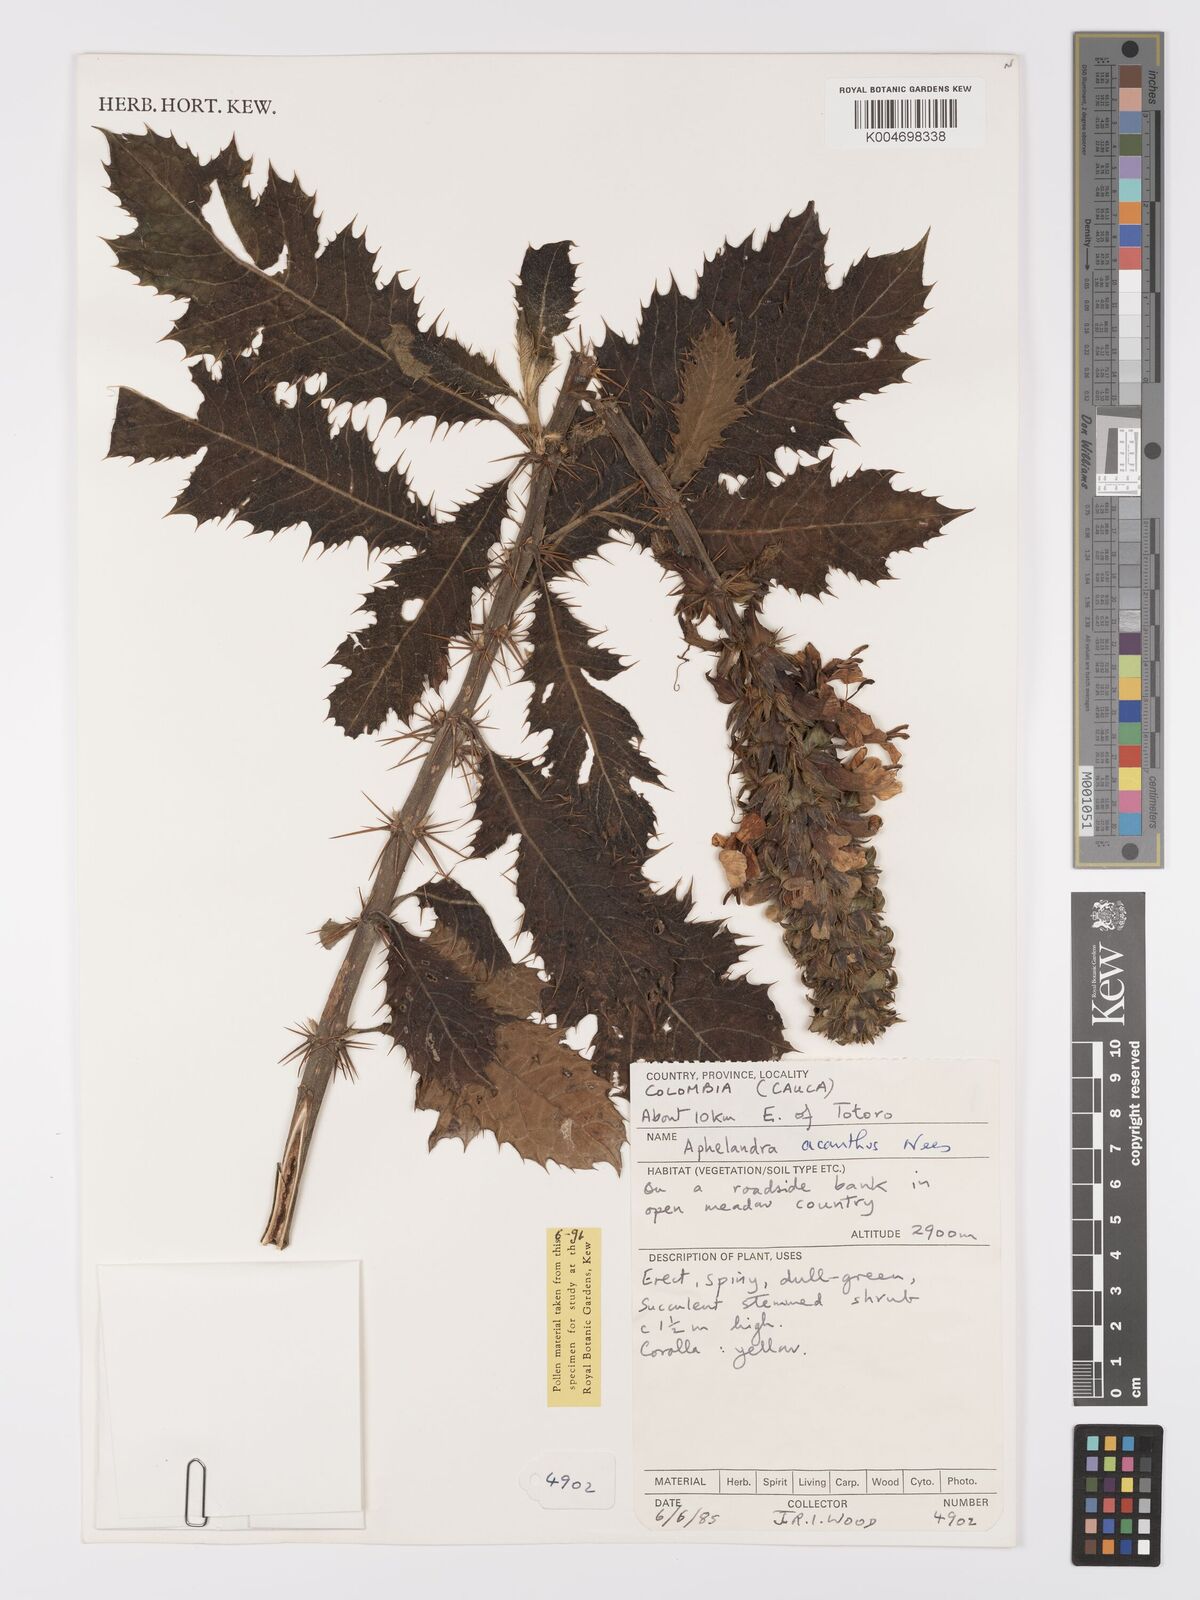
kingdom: Plantae
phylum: Tracheophyta
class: Magnoliopsida
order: Lamiales
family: Acanthaceae
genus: Aphelandra
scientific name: Aphelandra runcinata
